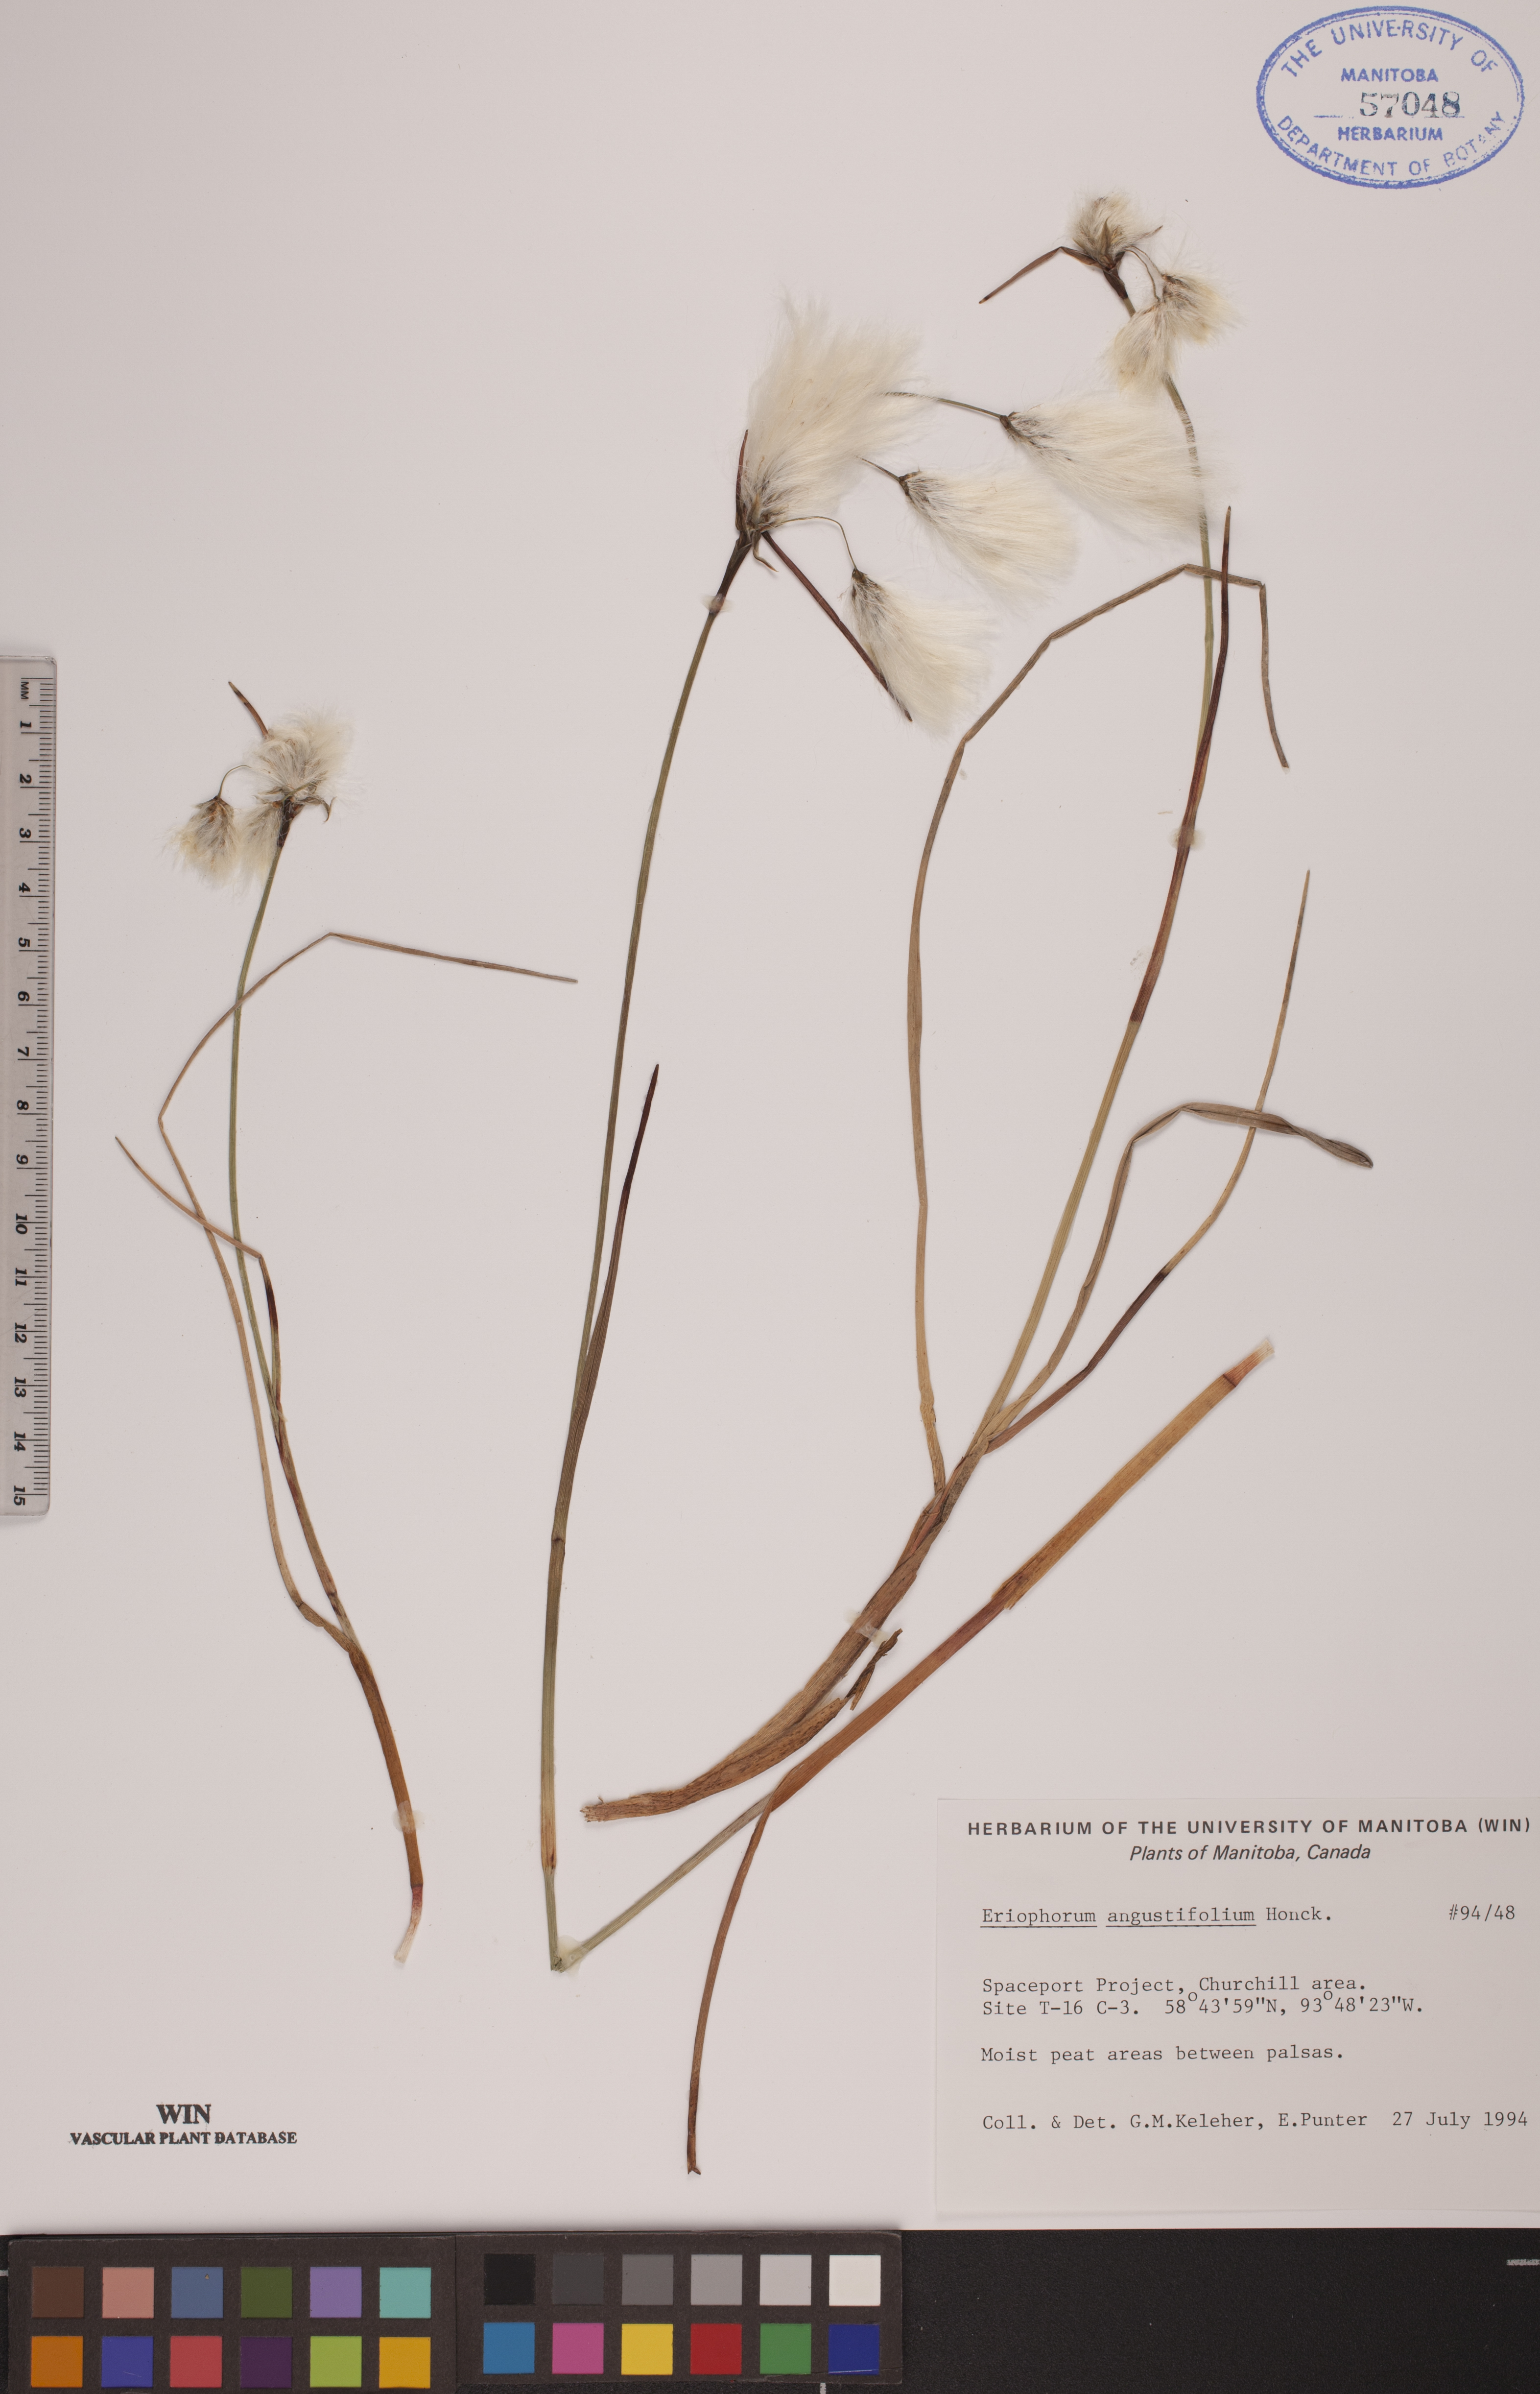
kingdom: Plantae
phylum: Tracheophyta
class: Liliopsida
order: Poales
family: Cyperaceae
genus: Eriophorum
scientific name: Eriophorum angustifolium
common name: Common cottongrass
